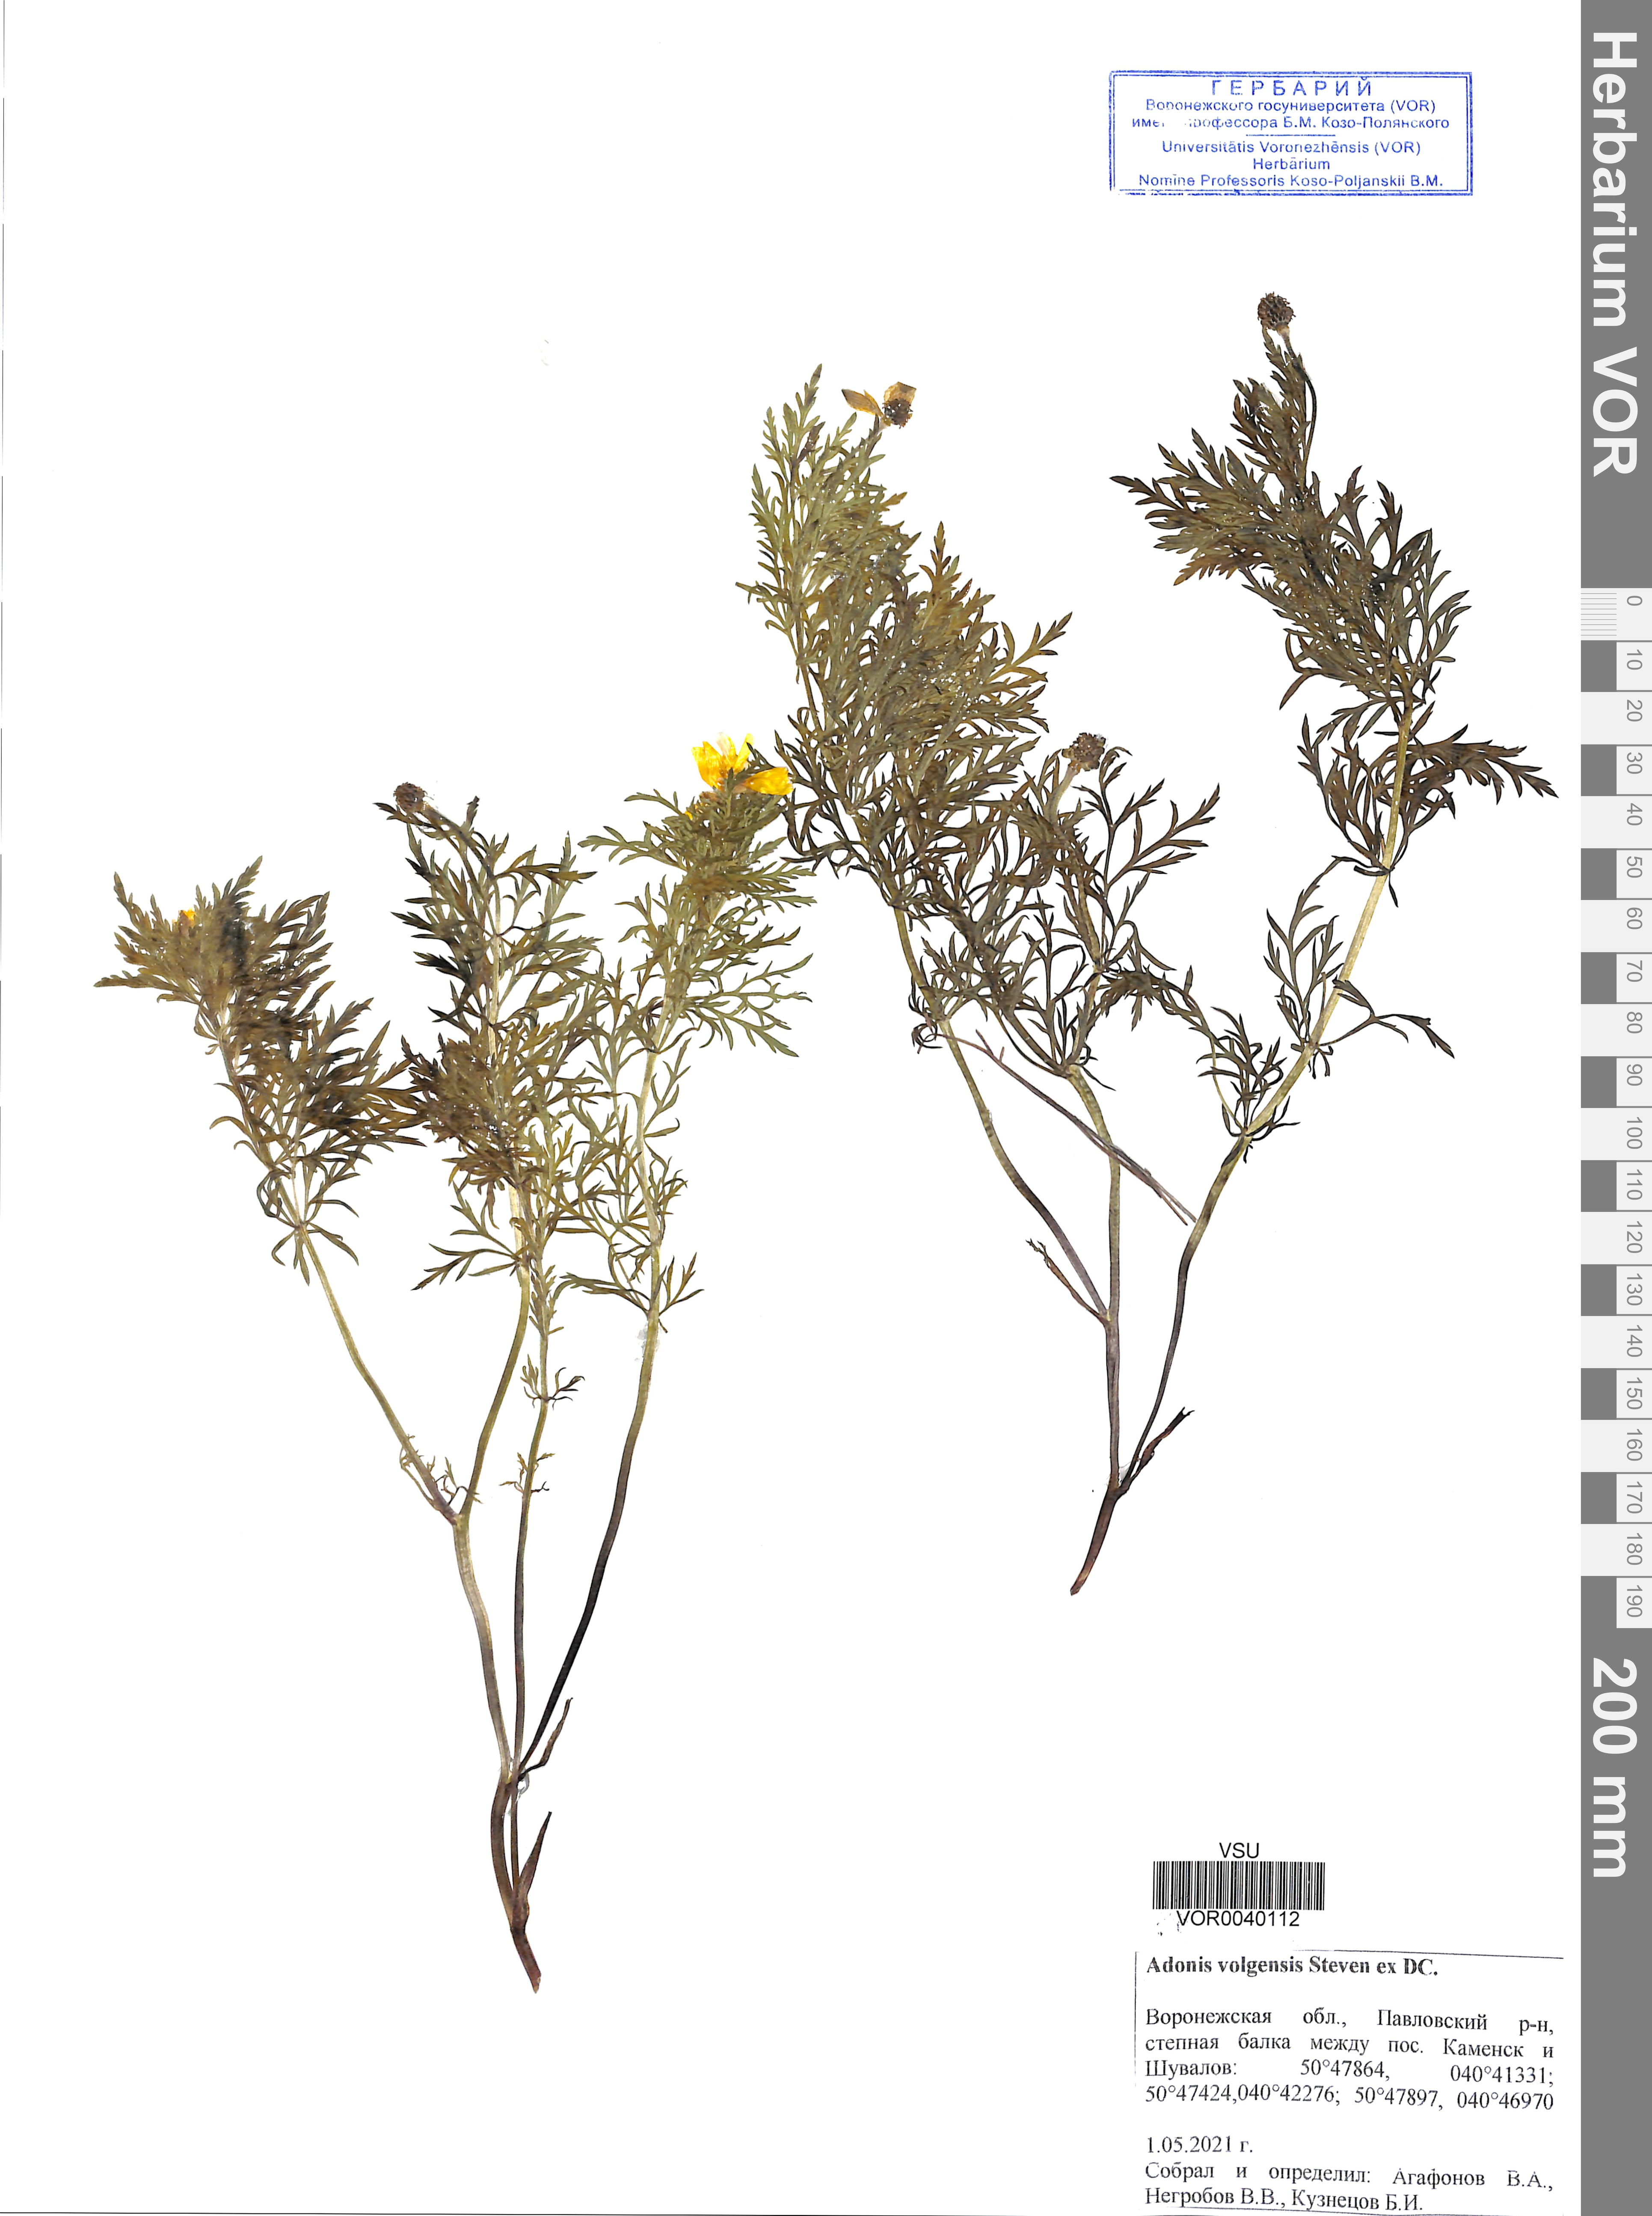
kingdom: Plantae
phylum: Tracheophyta
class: Magnoliopsida
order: Ranunculales
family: Ranunculaceae
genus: Adonis
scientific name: Adonis volgensis
